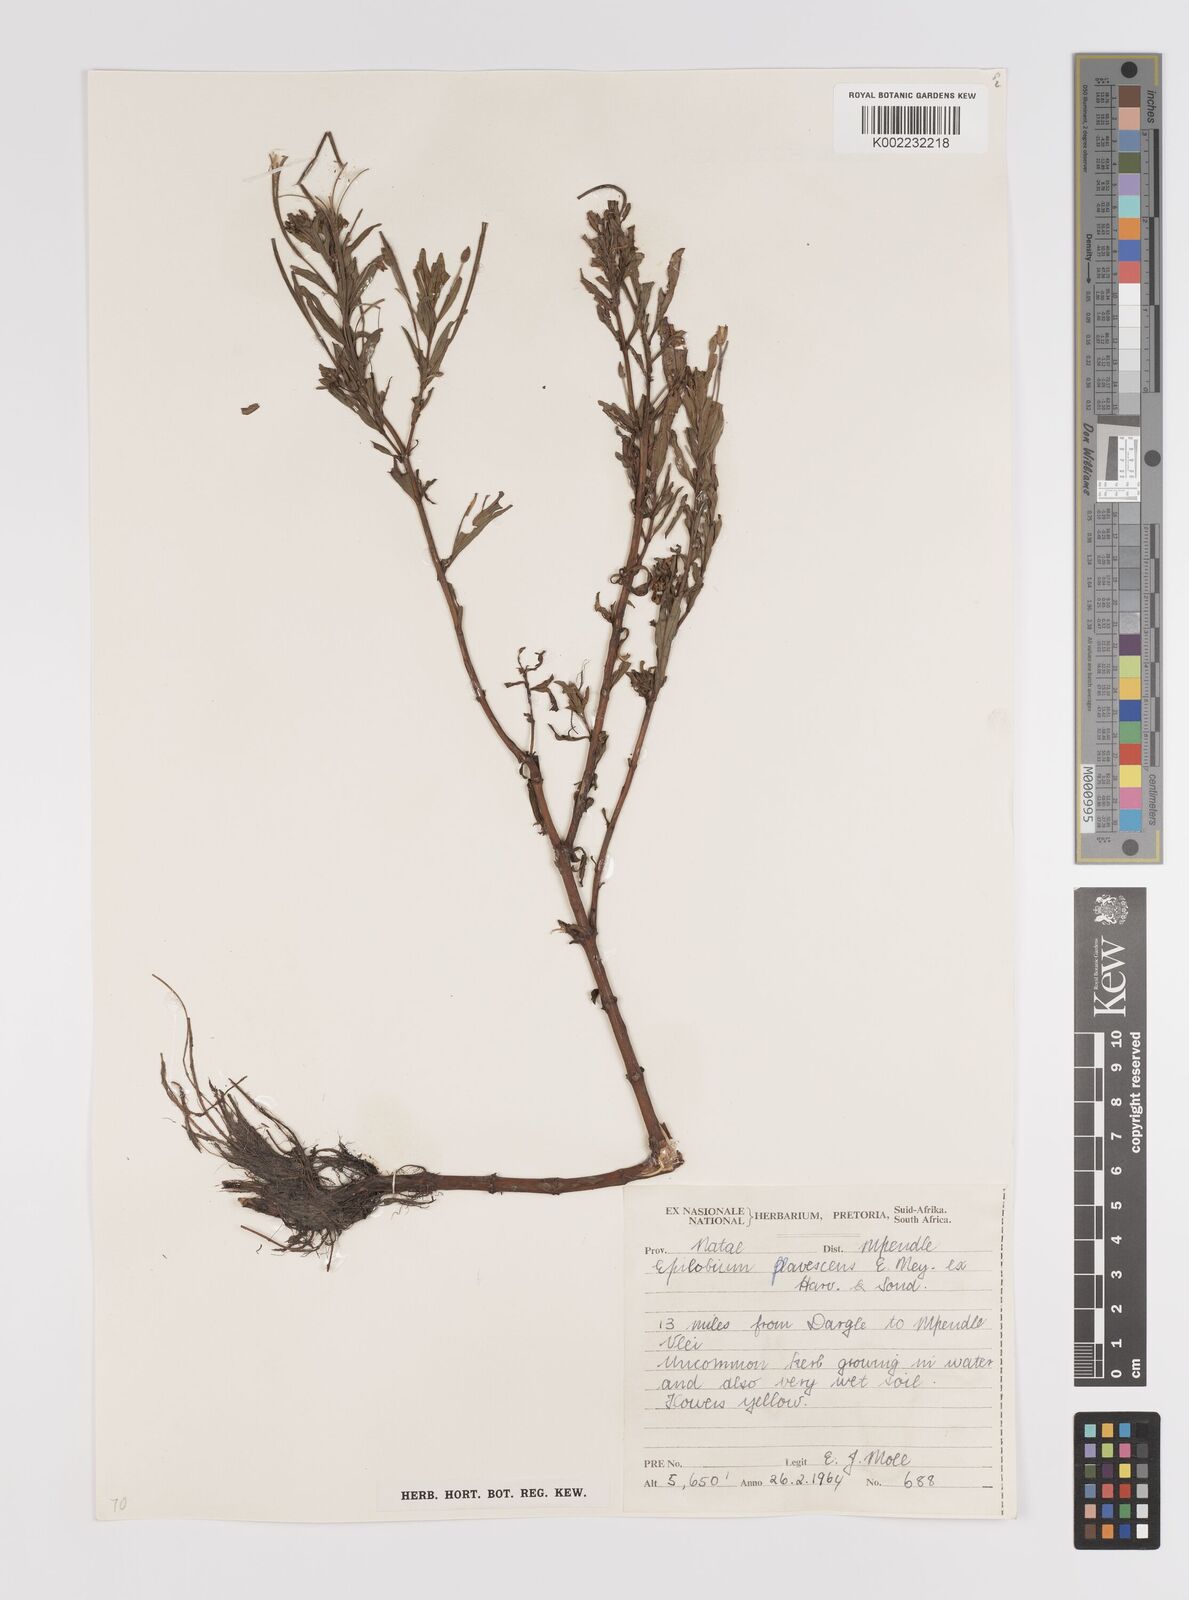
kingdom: Plantae
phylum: Tracheophyta
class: Magnoliopsida
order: Myrtales
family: Onagraceae
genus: Epilobium
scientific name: Epilobium capense
